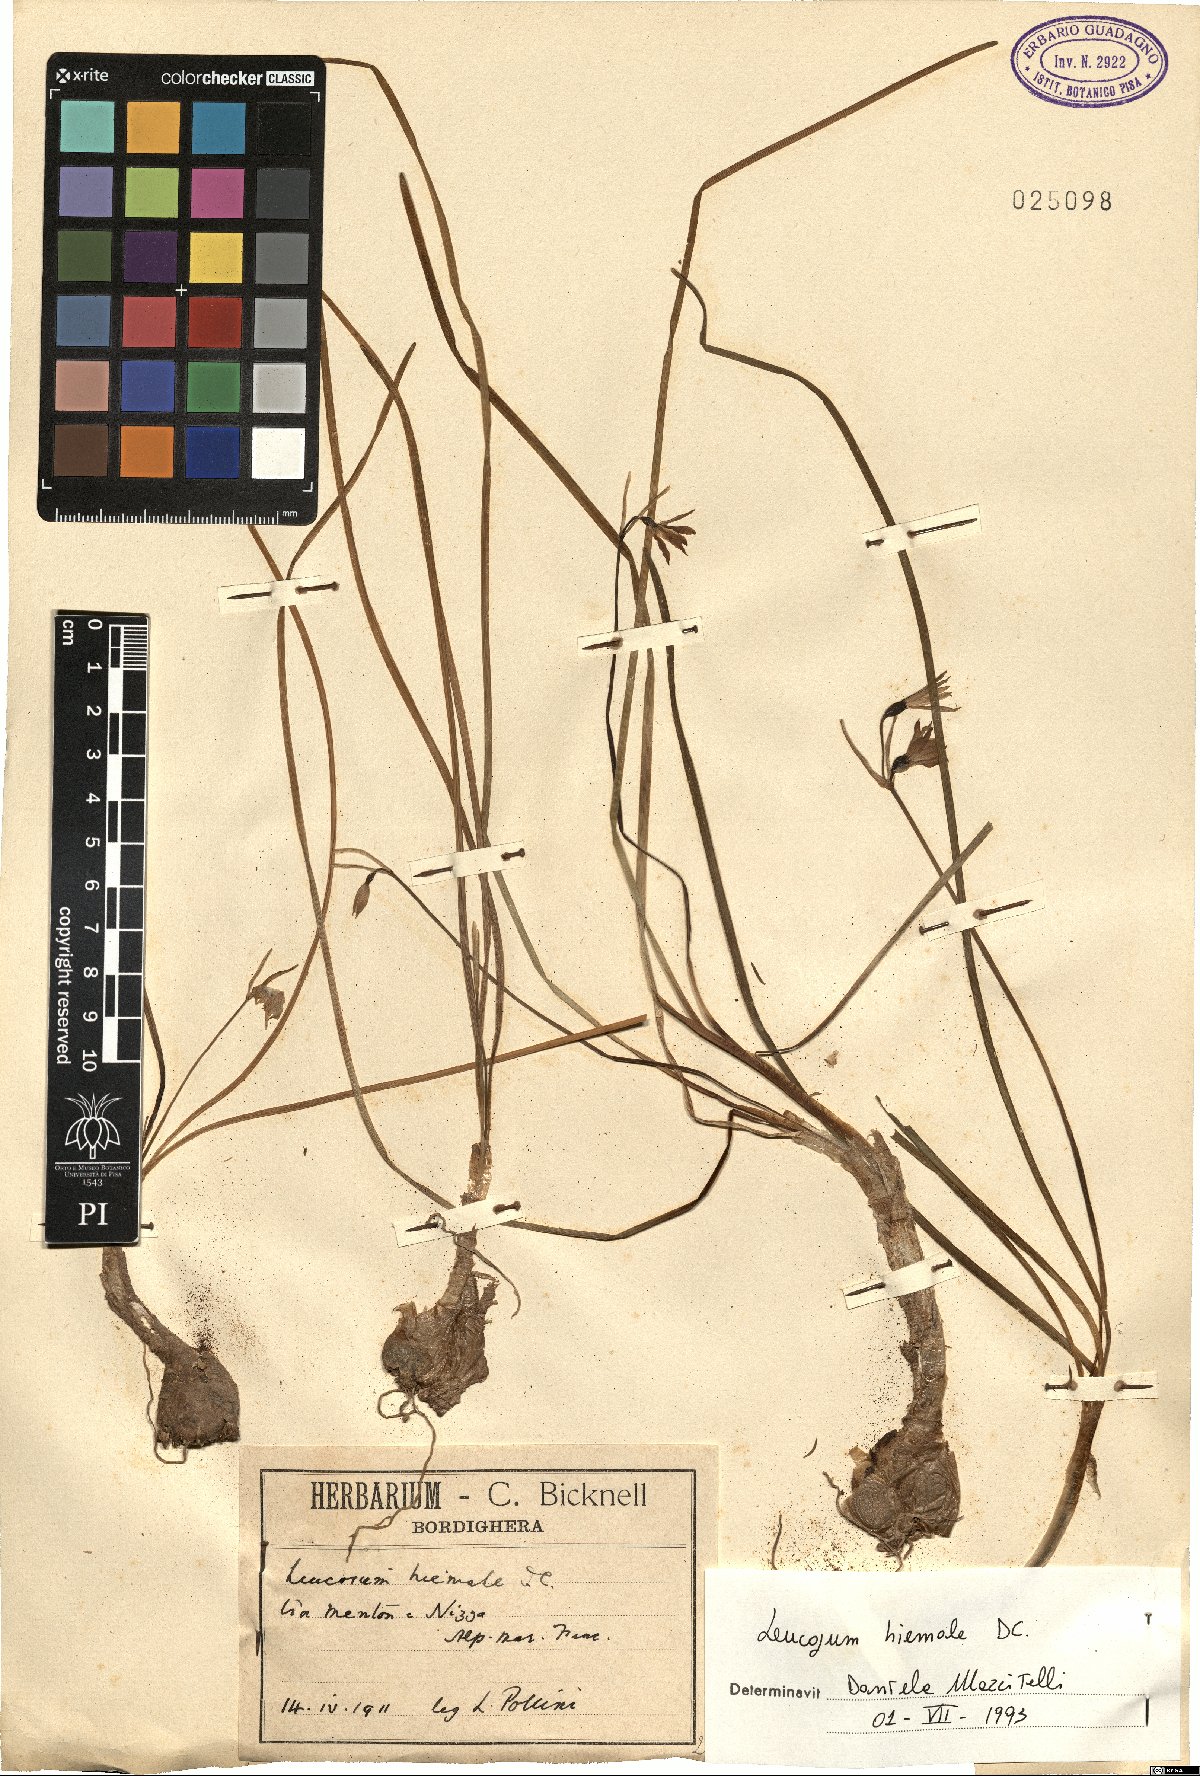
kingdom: Plantae
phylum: Tracheophyta
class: Liliopsida
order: Asparagales
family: Amaryllidaceae
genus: Acis
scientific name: Acis rosea
